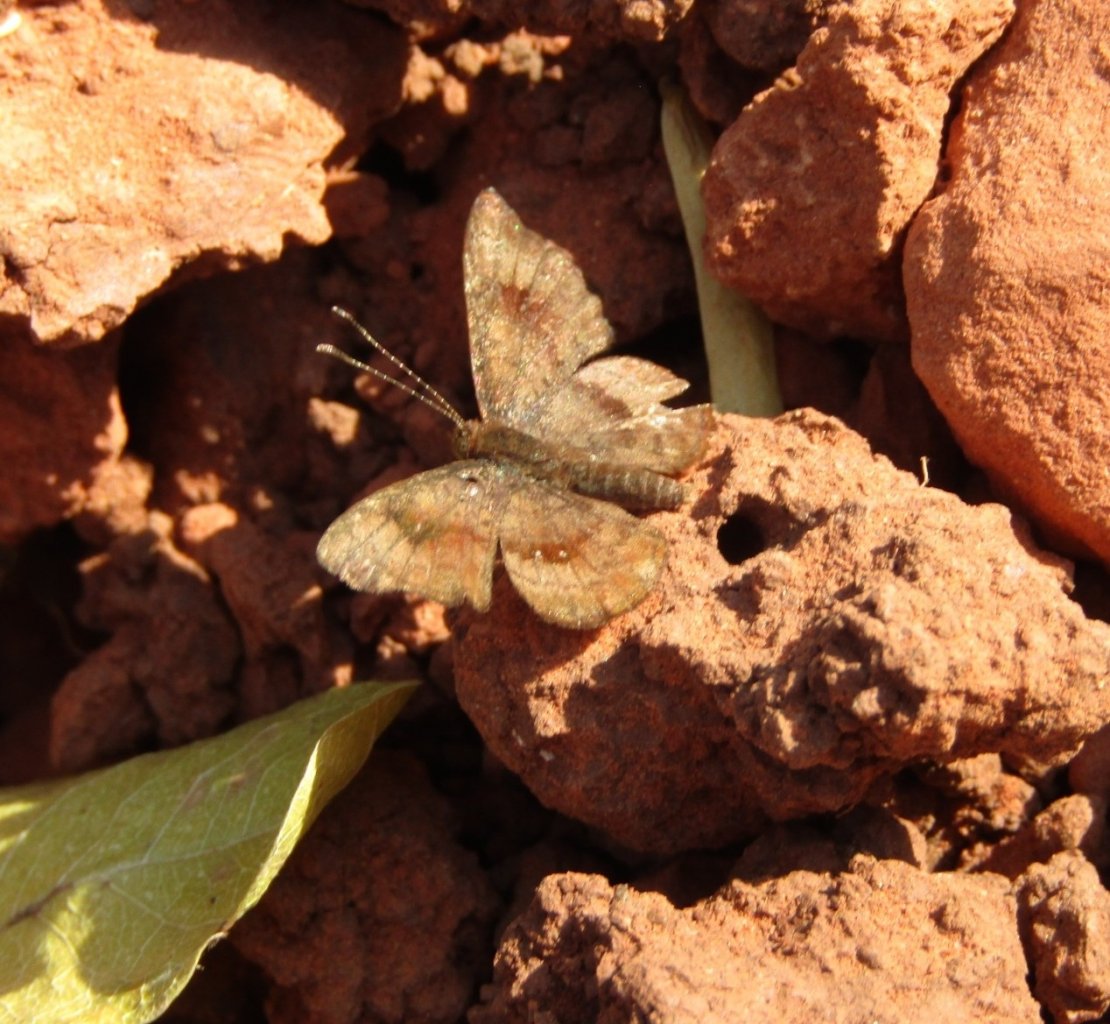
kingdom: Animalia
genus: Calephelis
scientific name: Calephelis nemesis
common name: Fatal Metalmark
